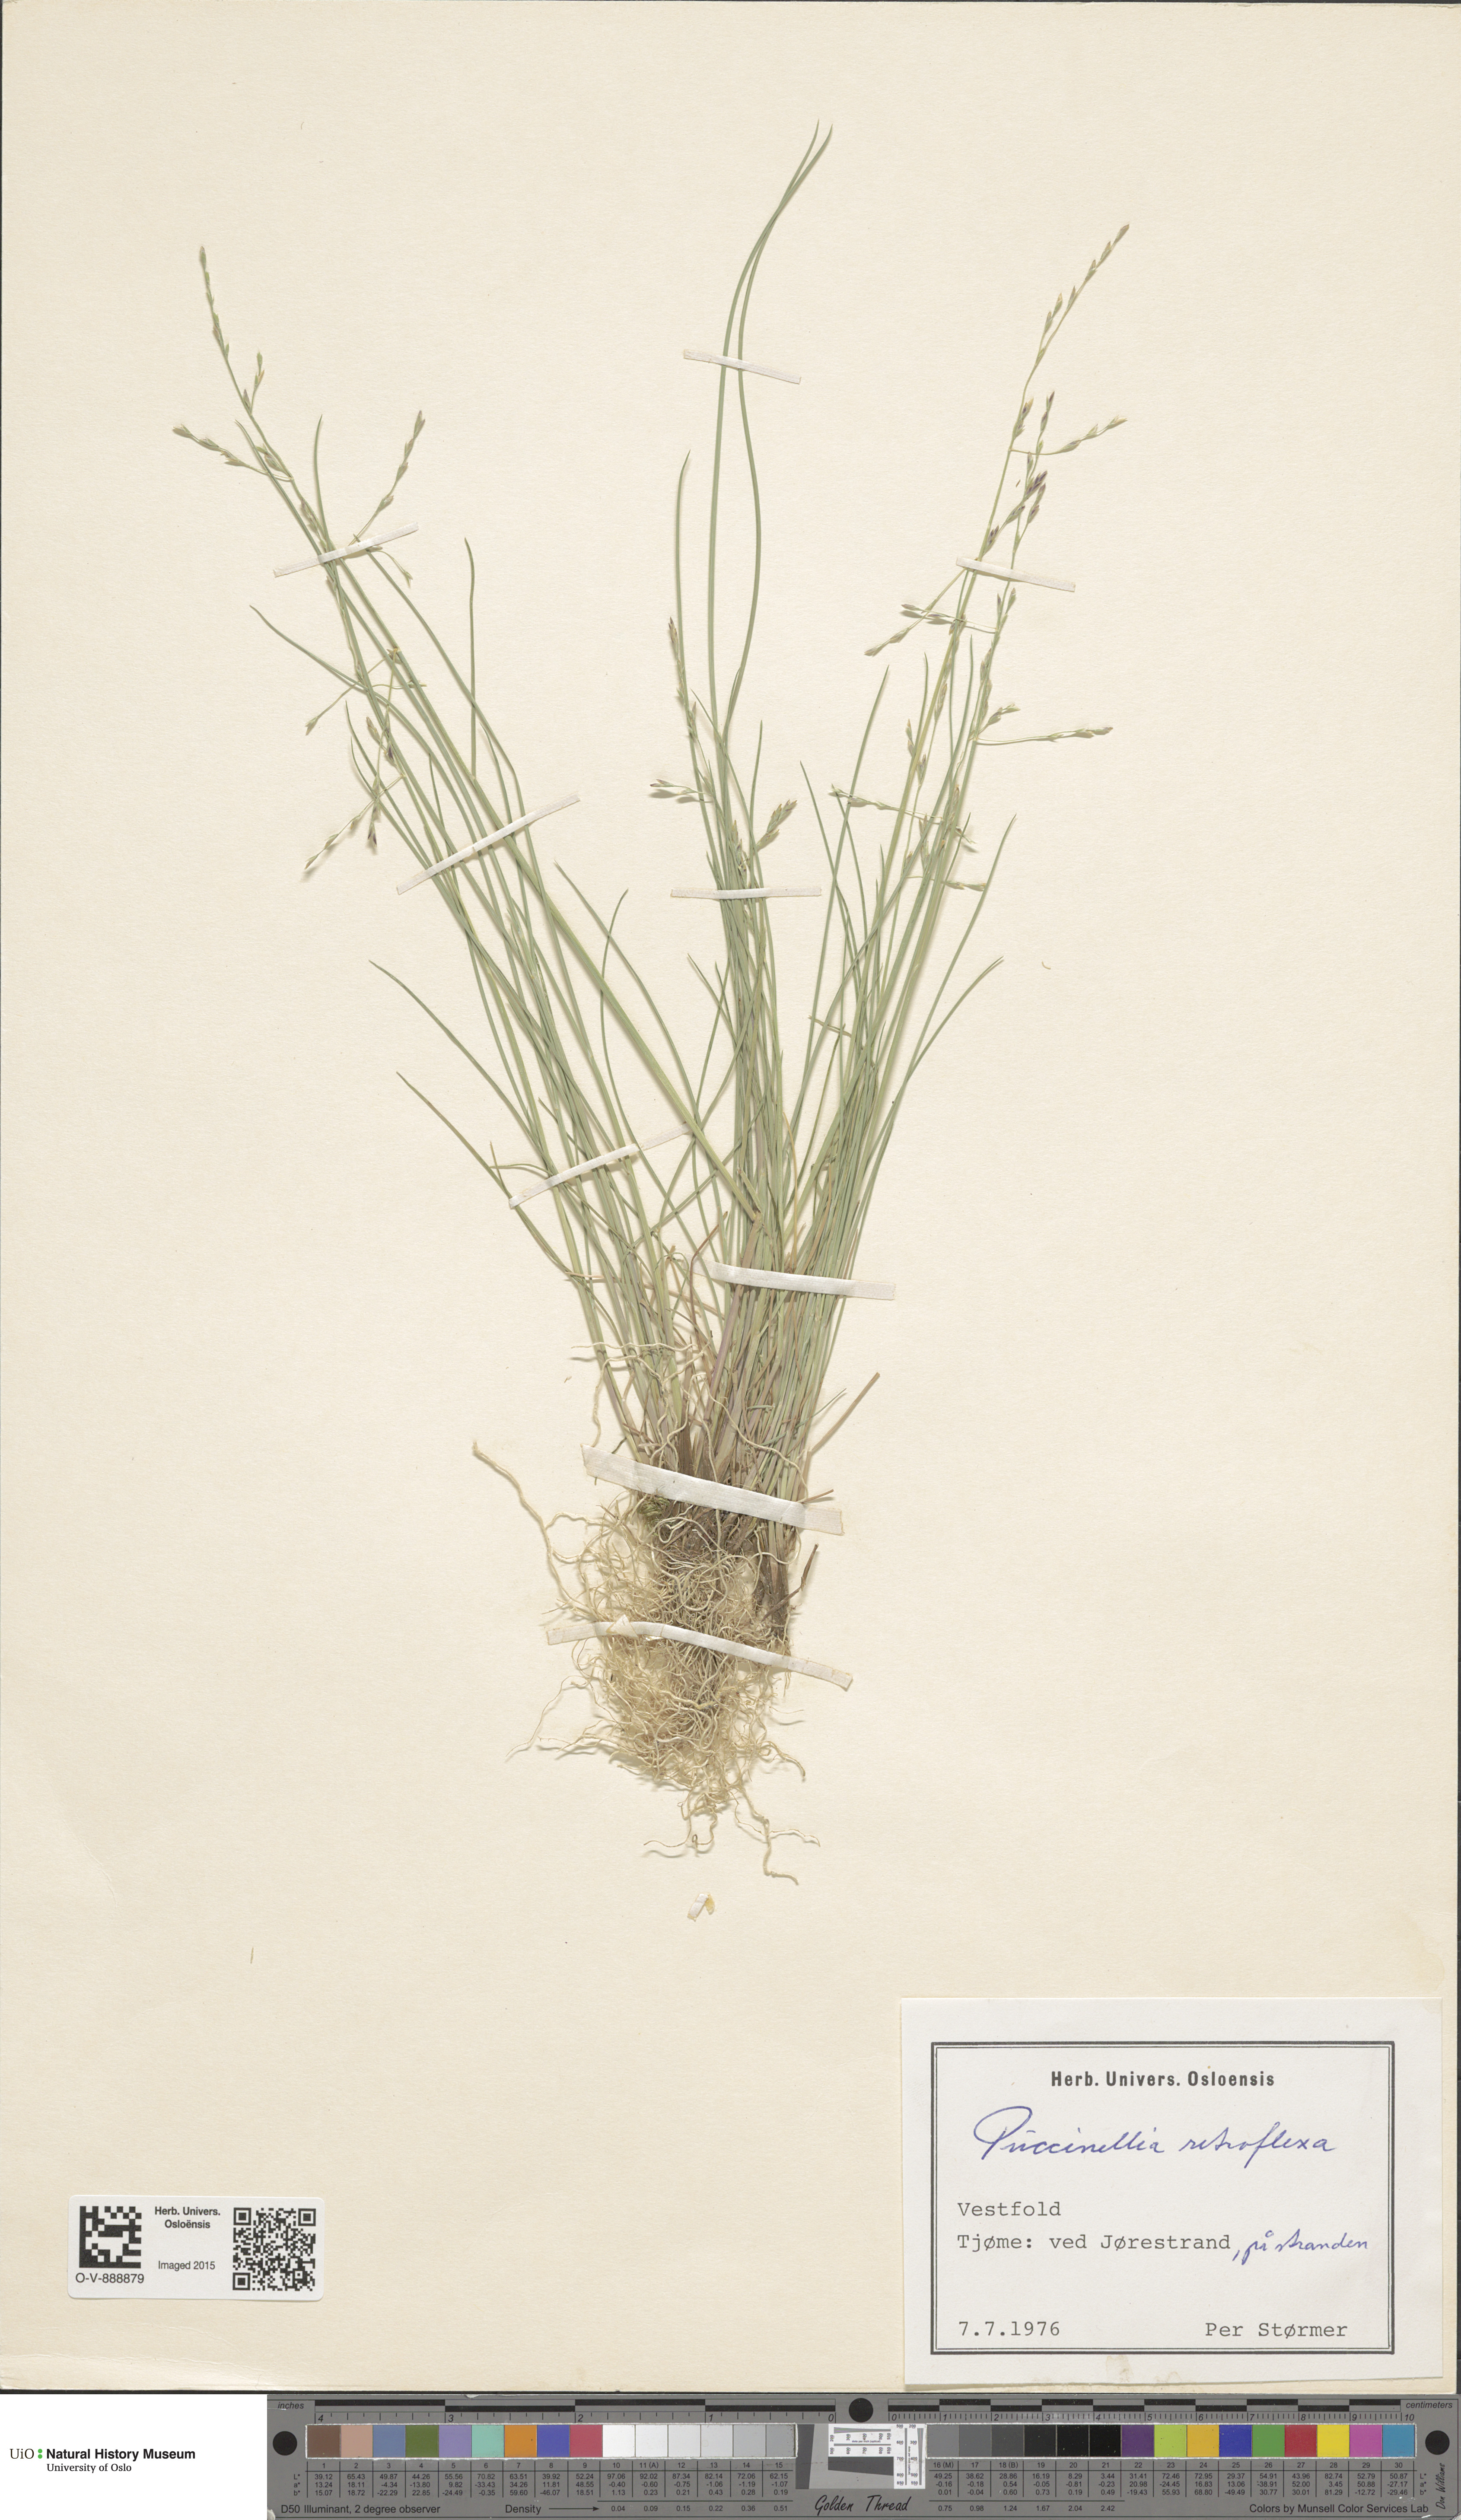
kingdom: Plantae
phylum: Tracheophyta
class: Liliopsida
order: Poales
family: Poaceae
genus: Puccinellia
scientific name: Puccinellia distans
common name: Weeping alkaligrass
